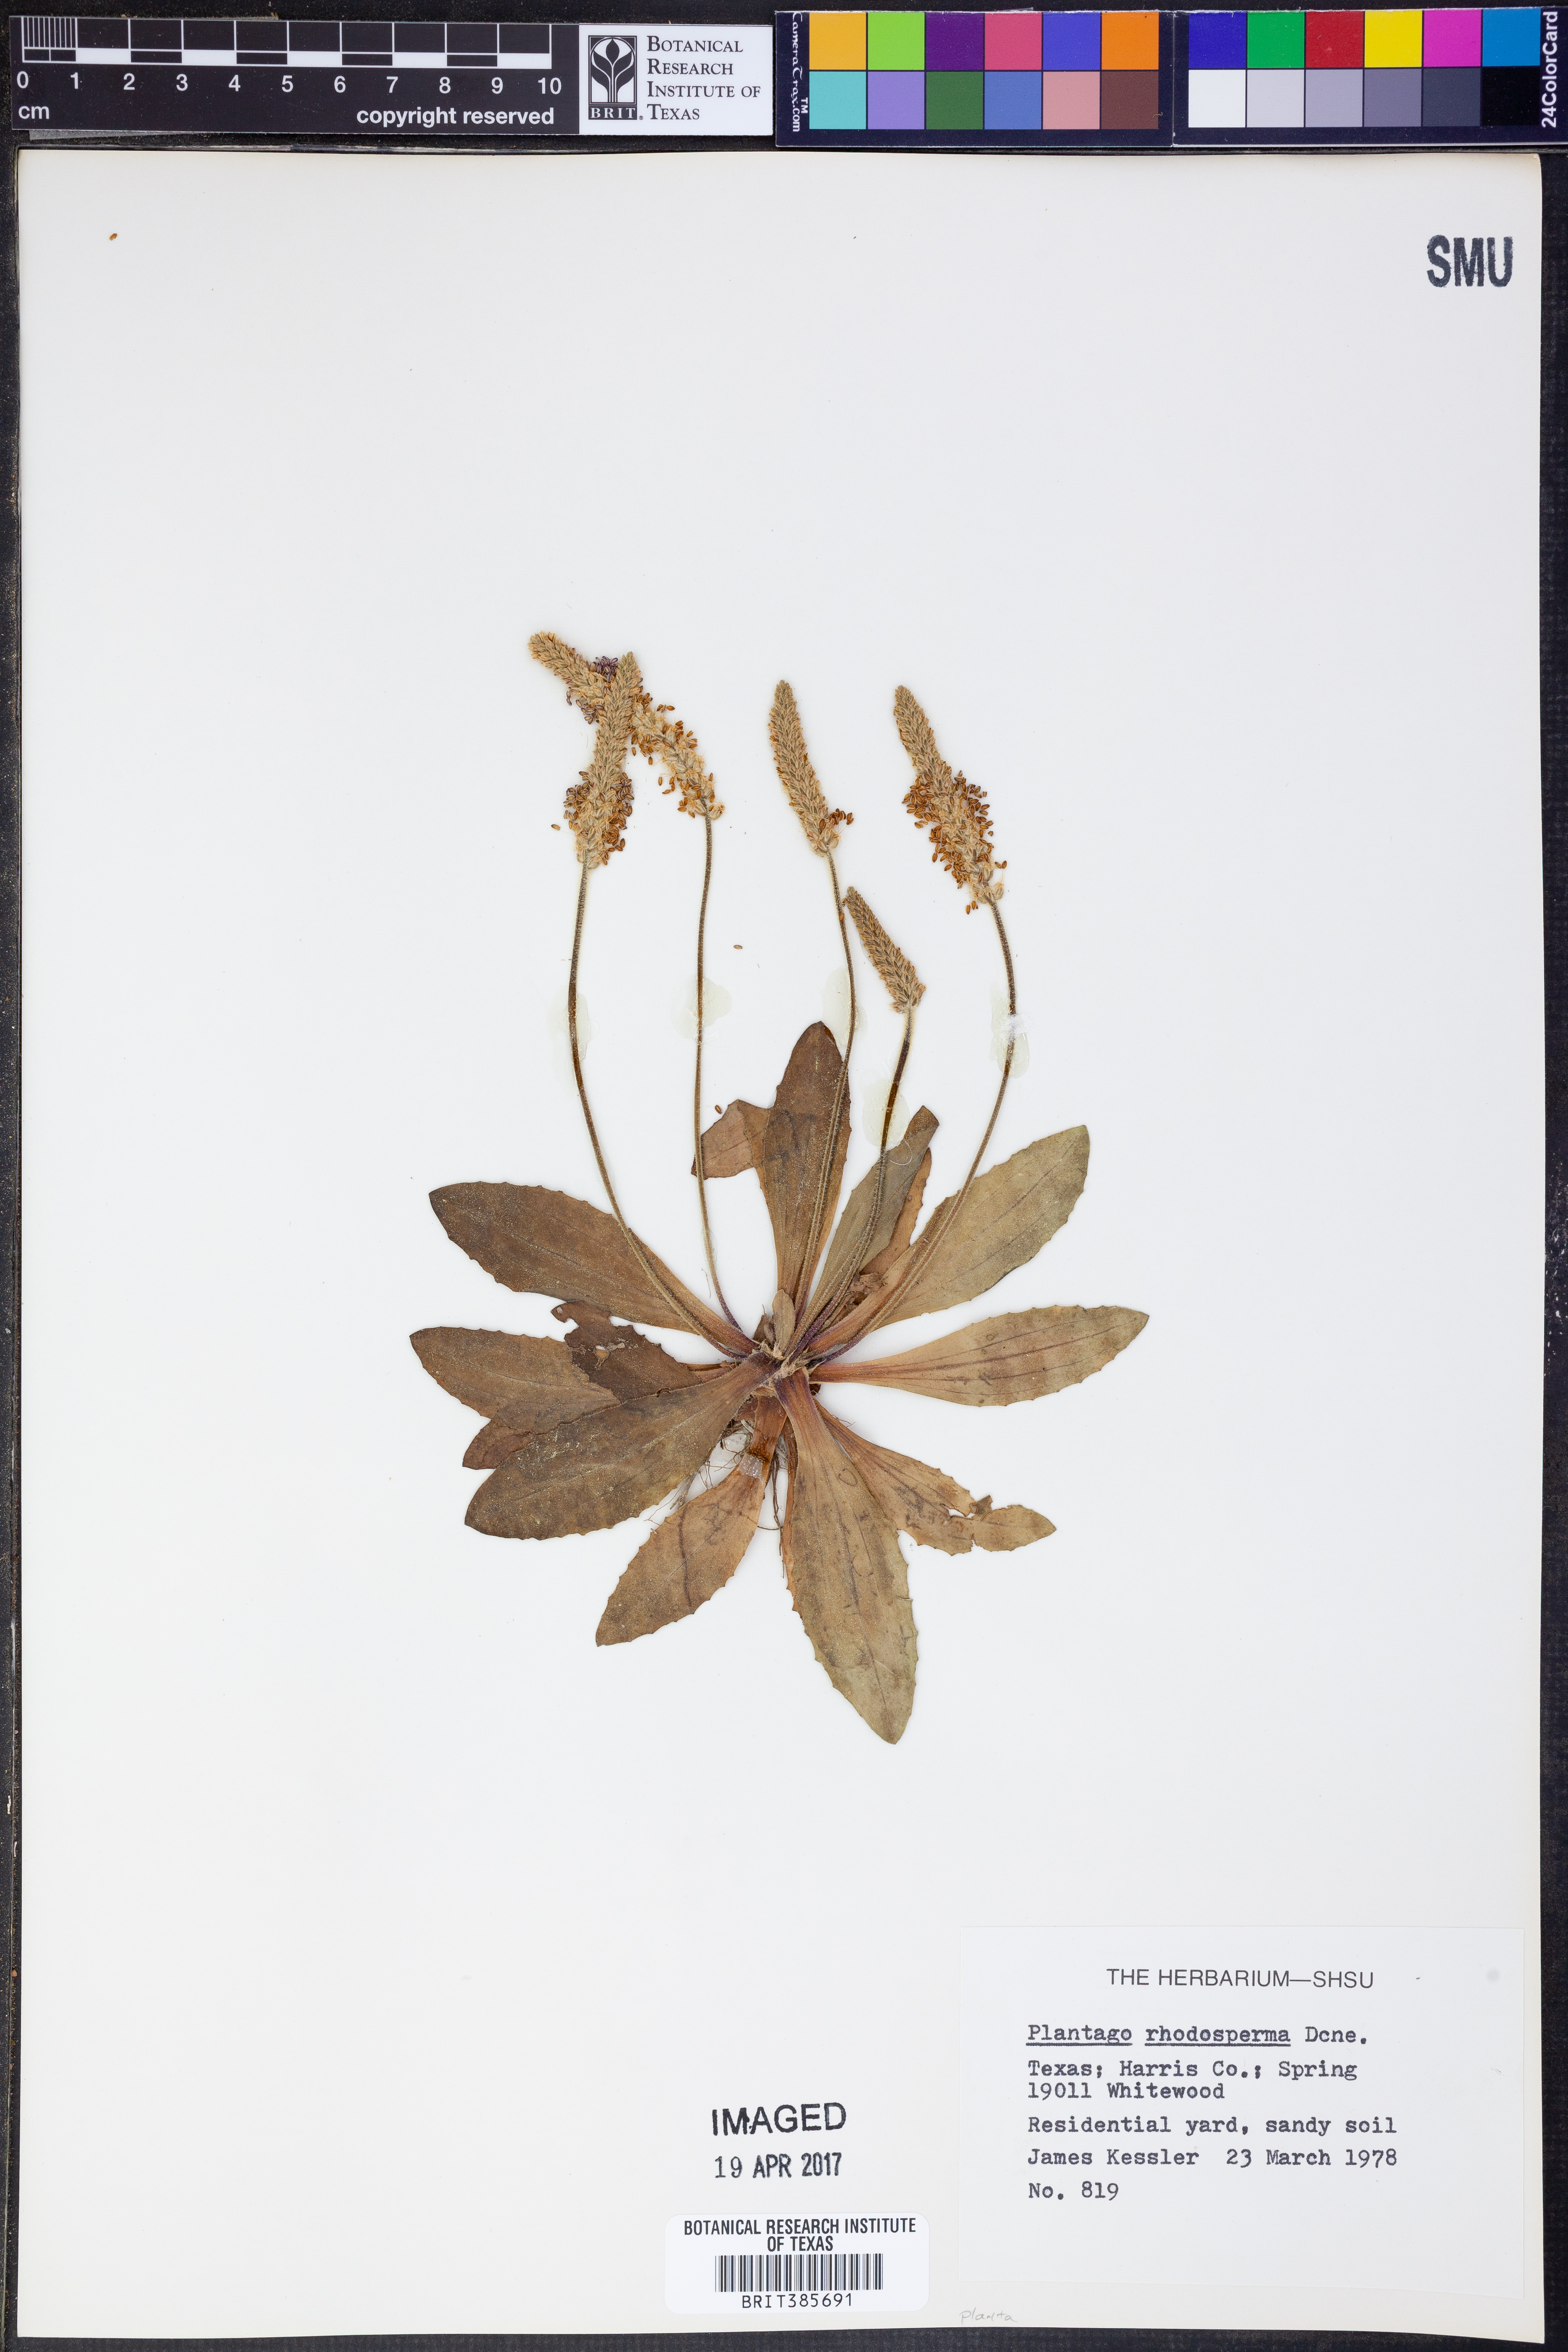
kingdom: Plantae
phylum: Tracheophyta
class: Magnoliopsida
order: Lamiales
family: Plantaginaceae
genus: Plantago
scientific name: Plantago rhodosperma
